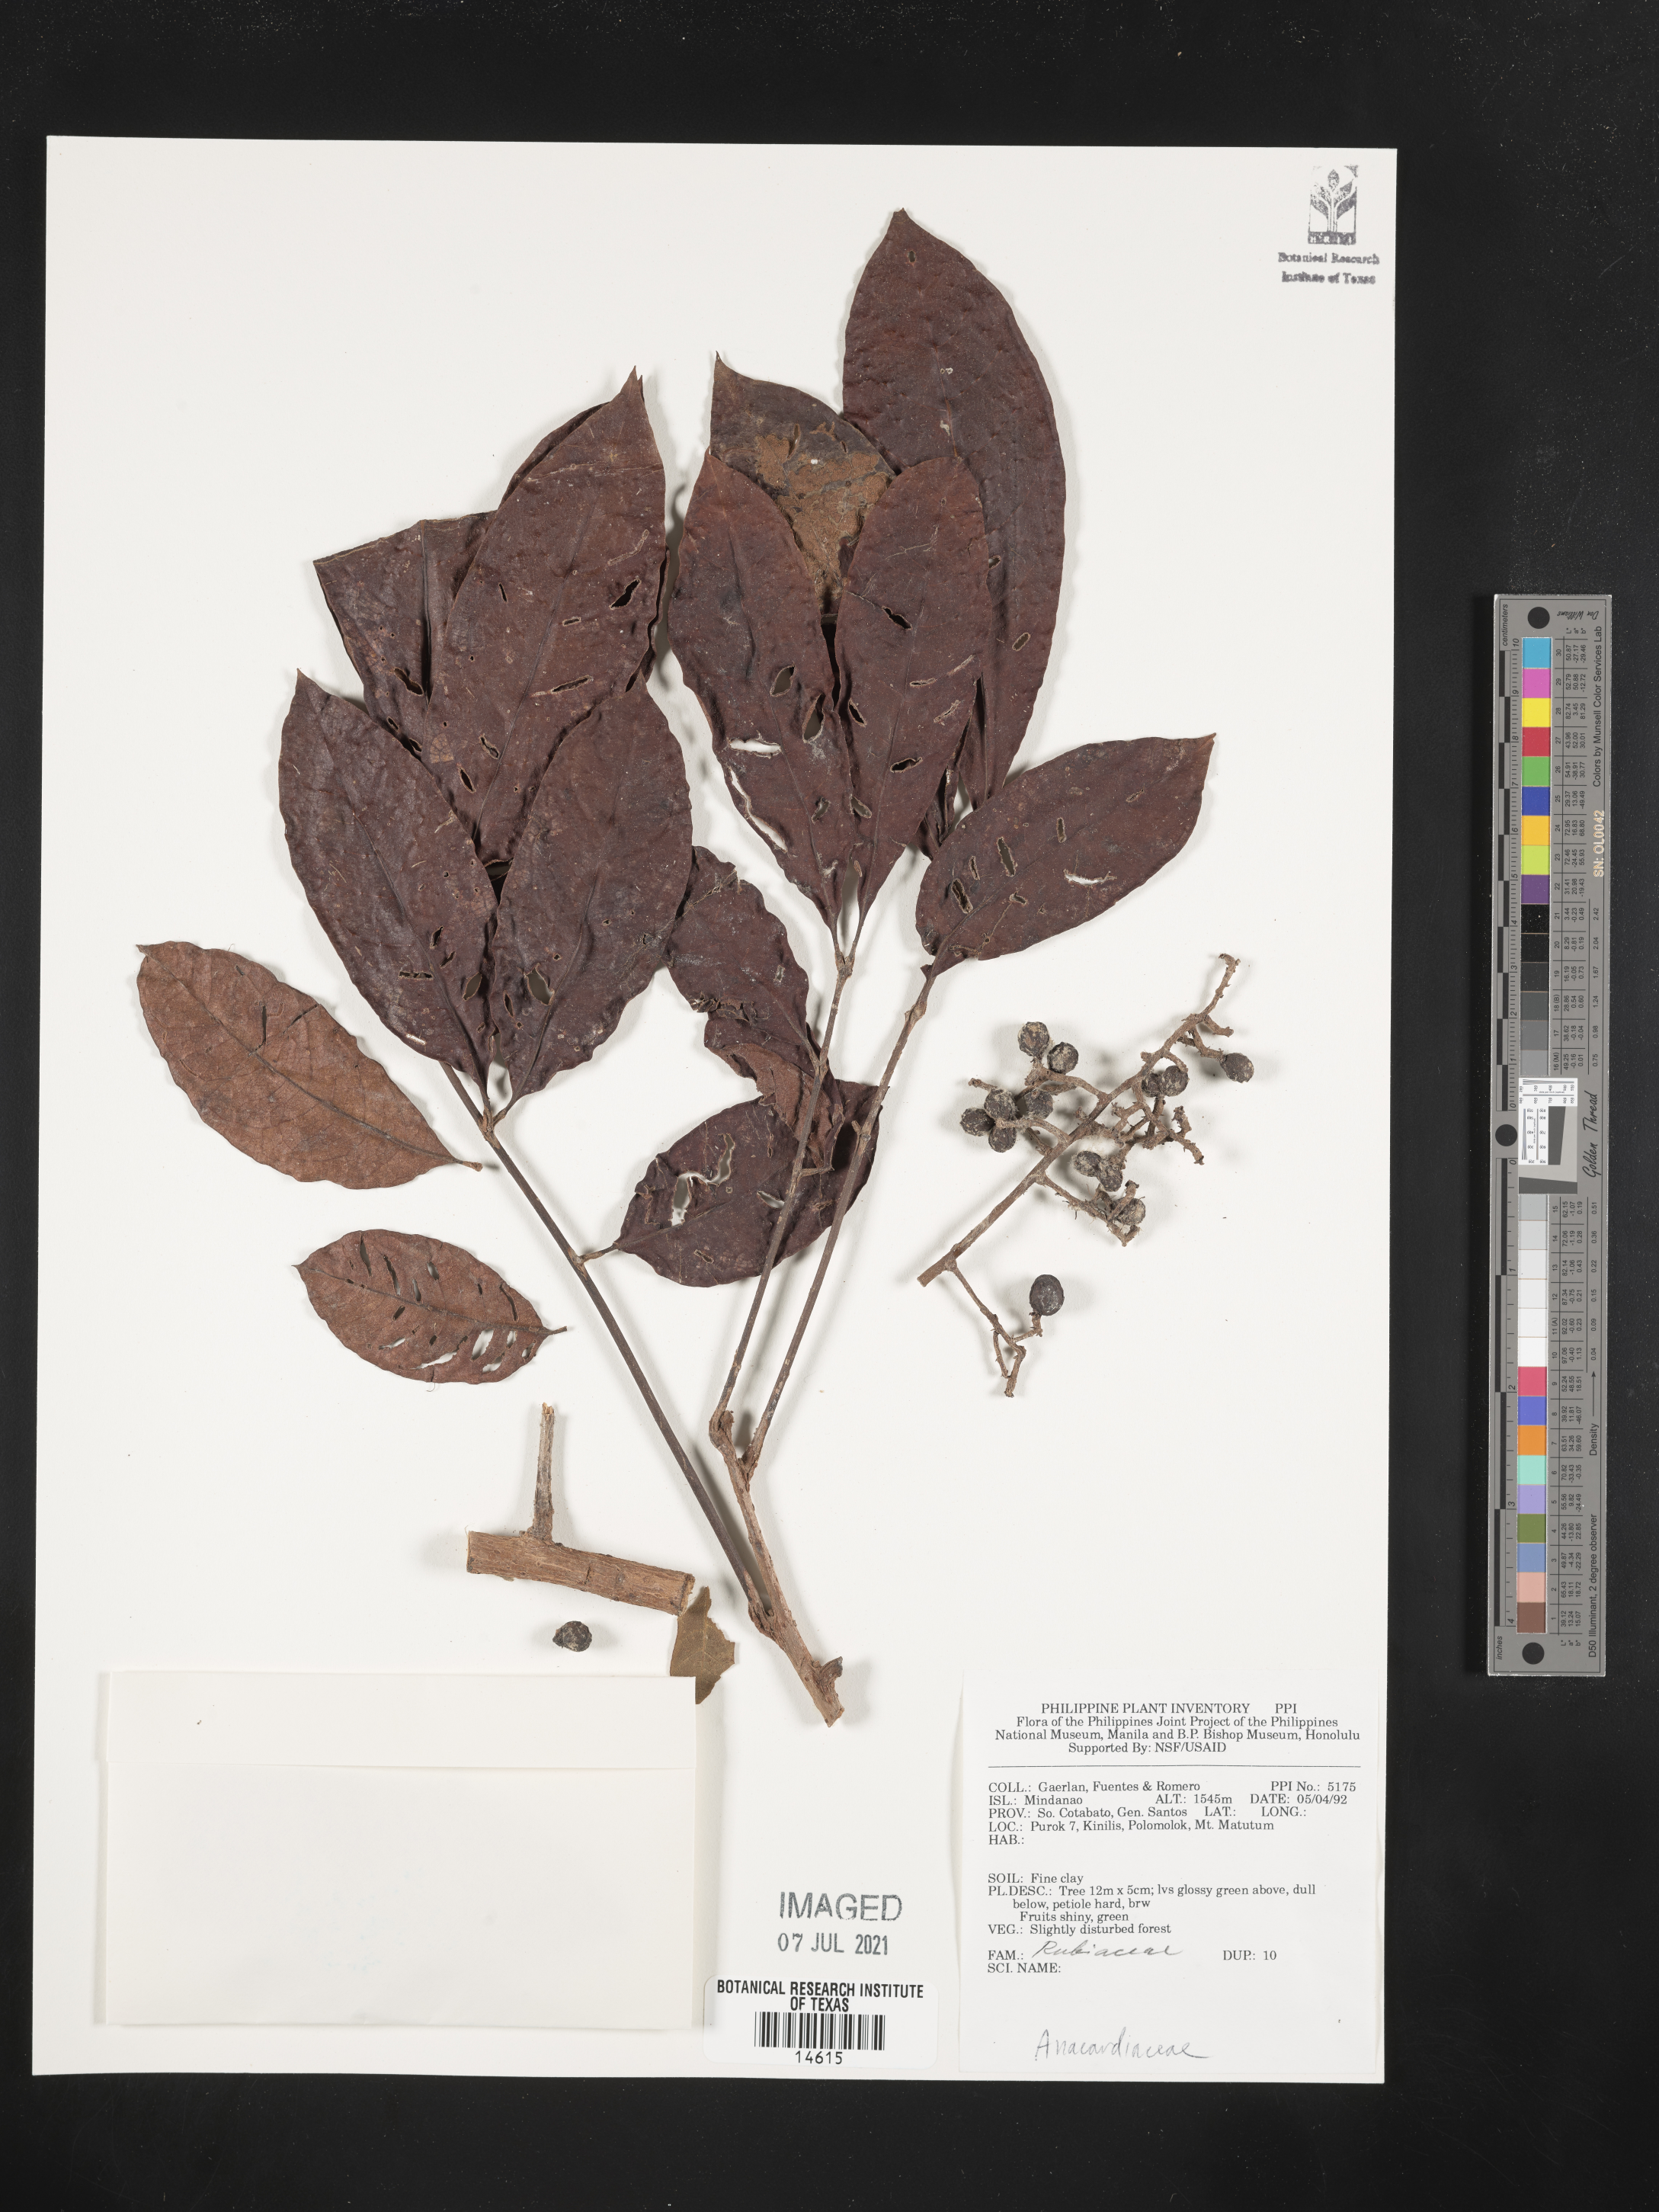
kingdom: Plantae
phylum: Tracheophyta
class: Magnoliopsida
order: Sapindales
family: Anacardiaceae
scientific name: Anacardiaceae
